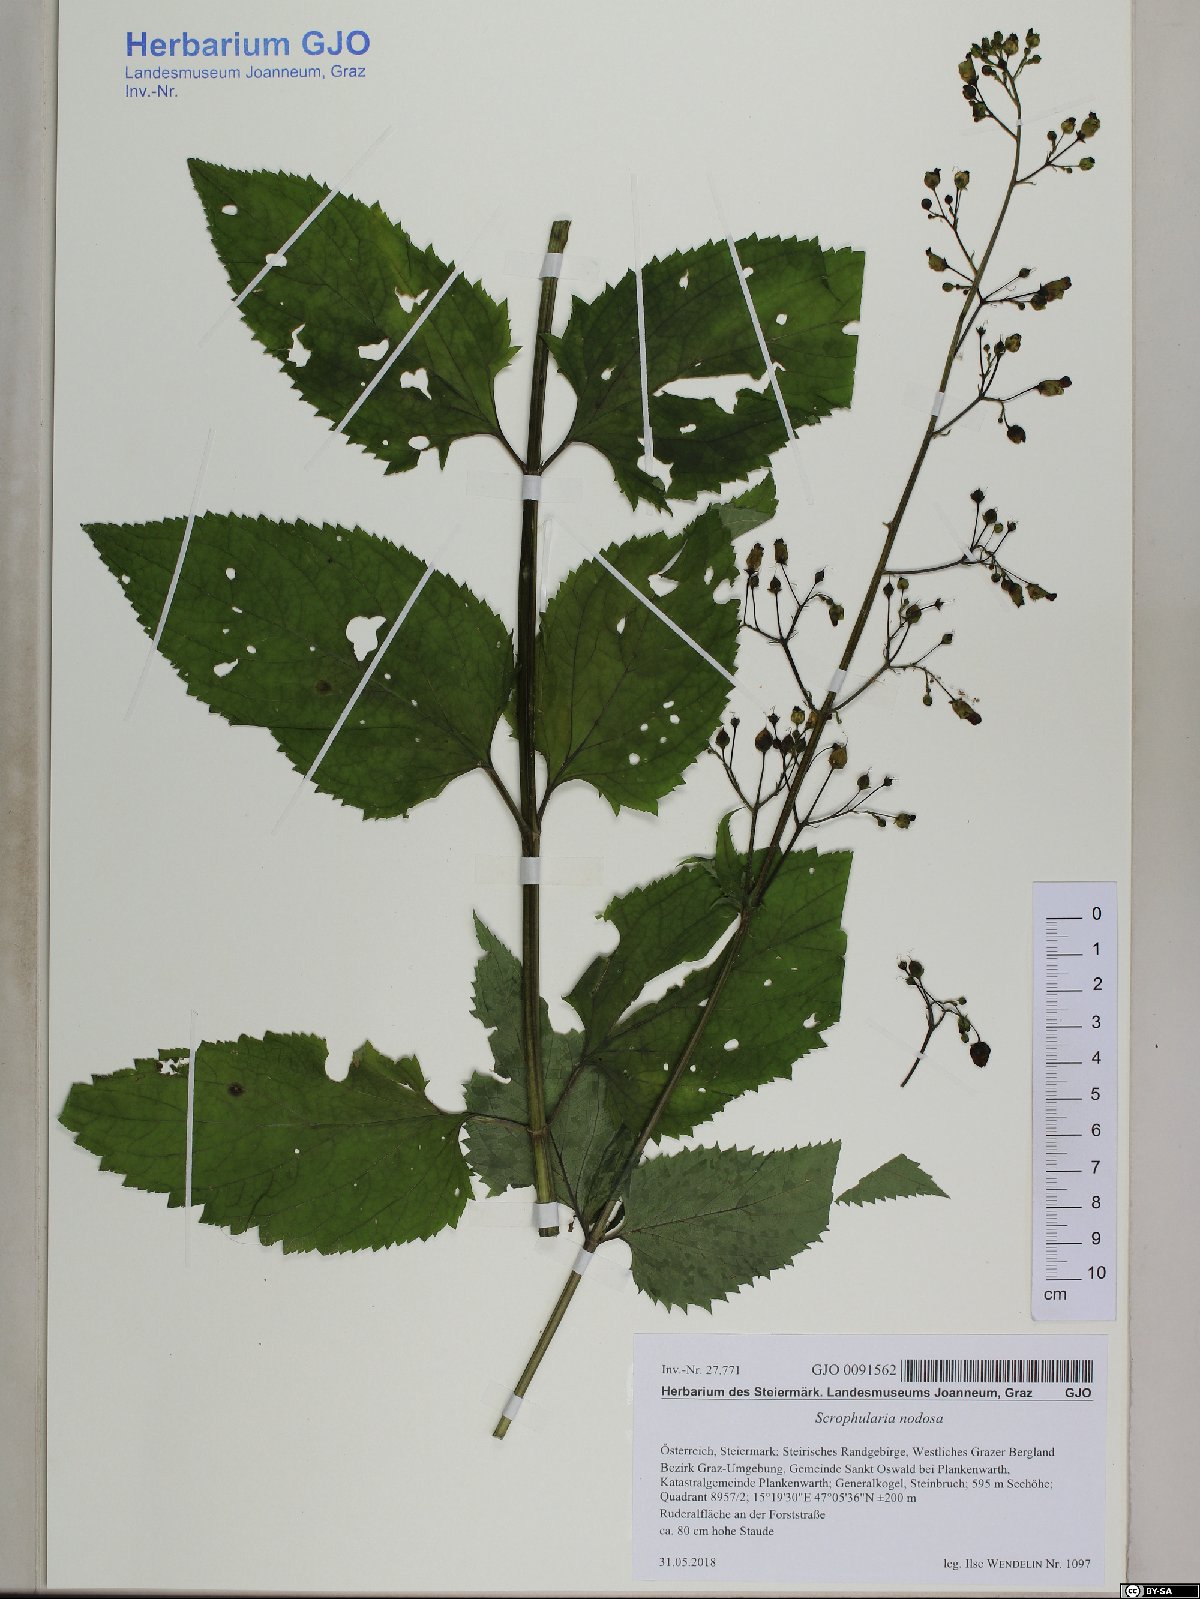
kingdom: Plantae
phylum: Tracheophyta
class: Magnoliopsida
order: Lamiales
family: Scrophulariaceae
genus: Scrophularia
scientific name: Scrophularia nodosa
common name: Common figwort
